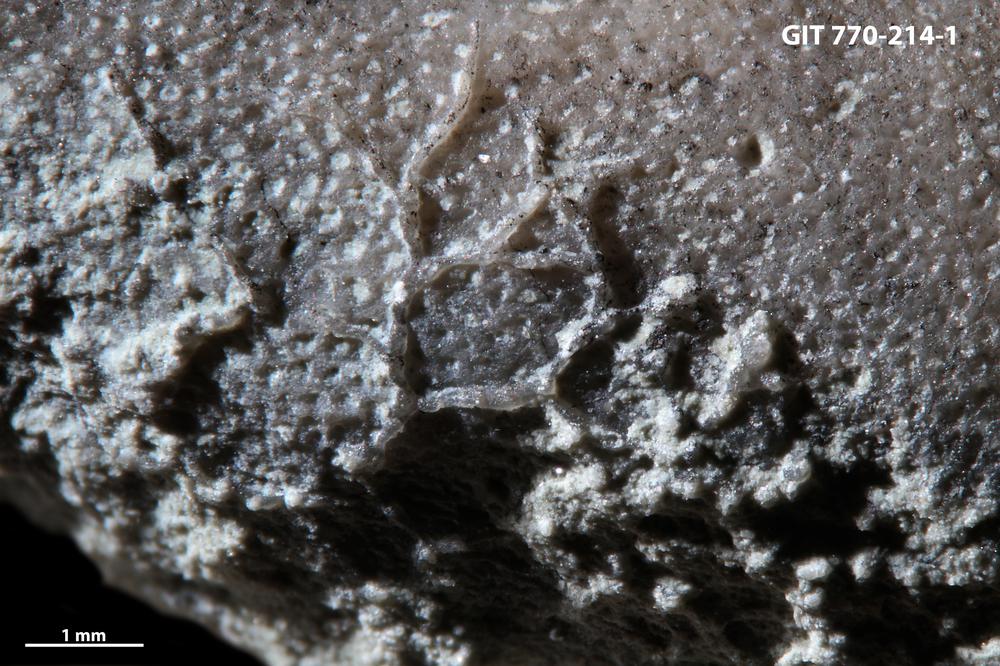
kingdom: Animalia
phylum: Bryozoa
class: Stenolaemata
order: Cyclostomatida
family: Corynotrypidae
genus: Corynotrypa
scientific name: Corynotrypa
